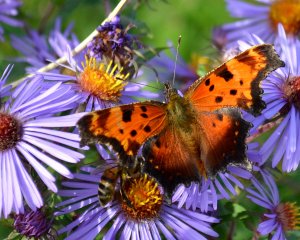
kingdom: Animalia
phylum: Arthropoda
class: Insecta
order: Lepidoptera
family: Nymphalidae
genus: Polygonia
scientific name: Polygonia progne
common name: Gray Comma
